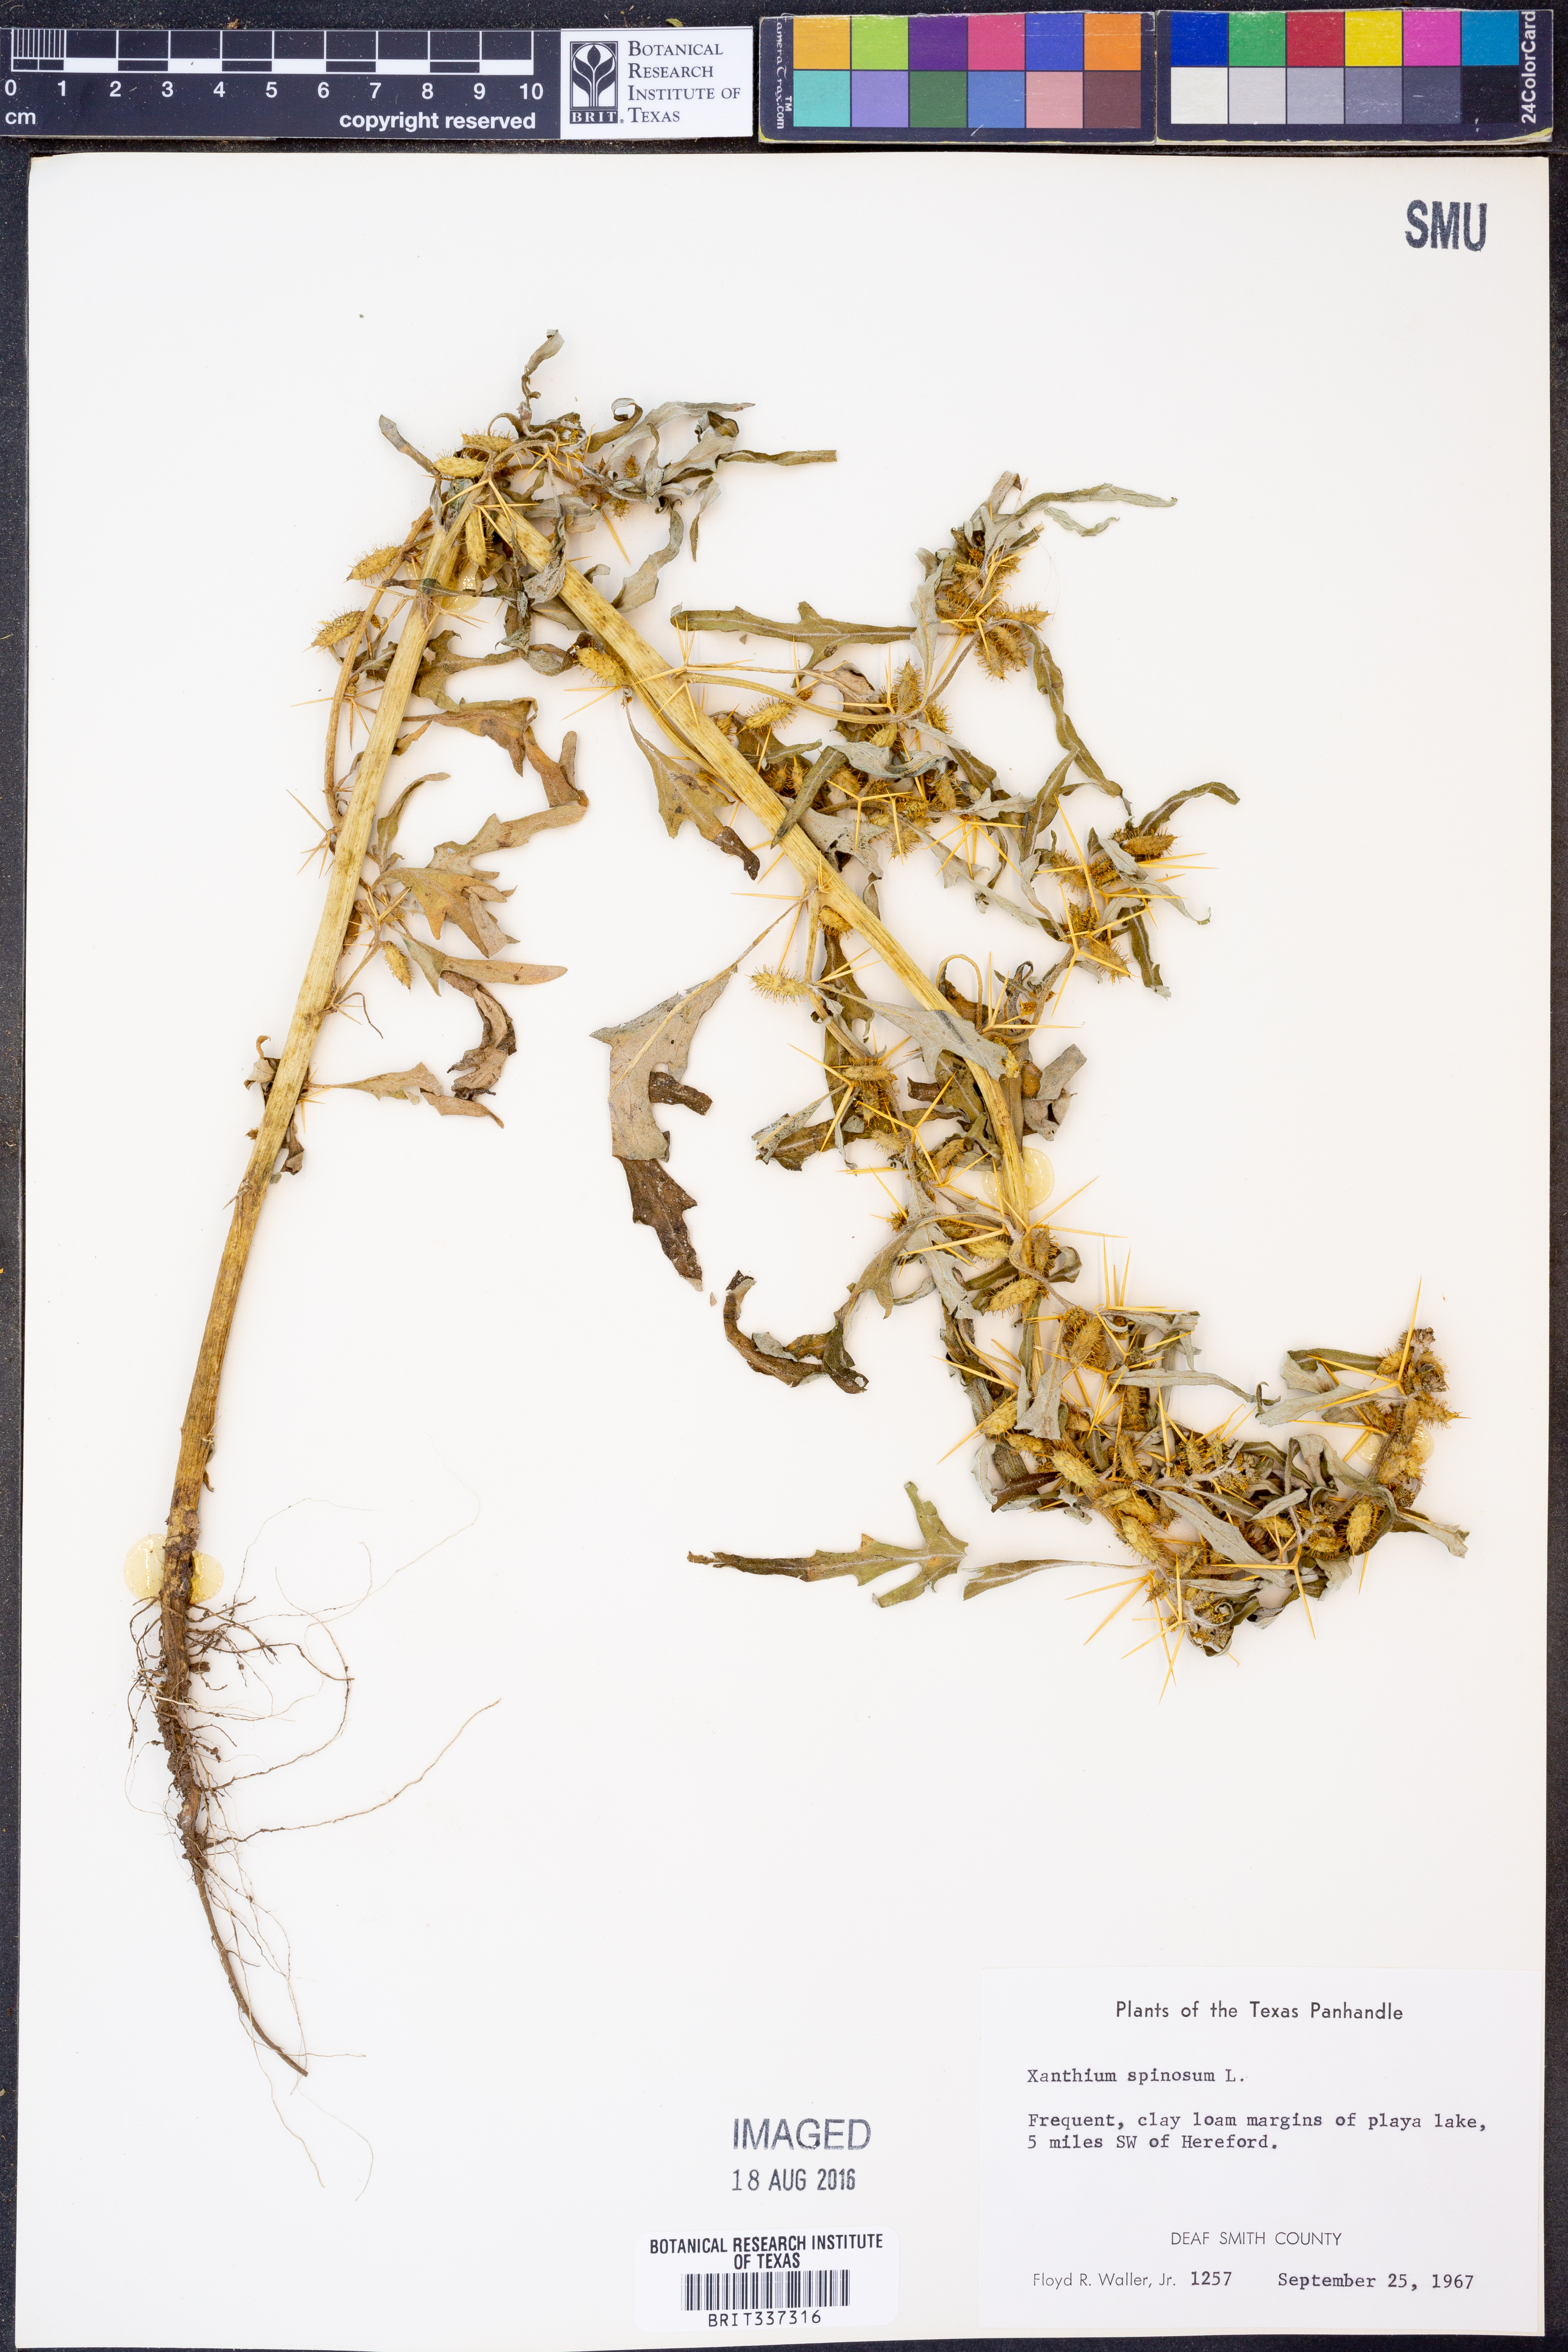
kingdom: Plantae
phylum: Tracheophyta
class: Magnoliopsida
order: Asterales
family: Asteraceae
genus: Xanthium
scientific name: Xanthium spinosum
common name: Spiny cocklebur
